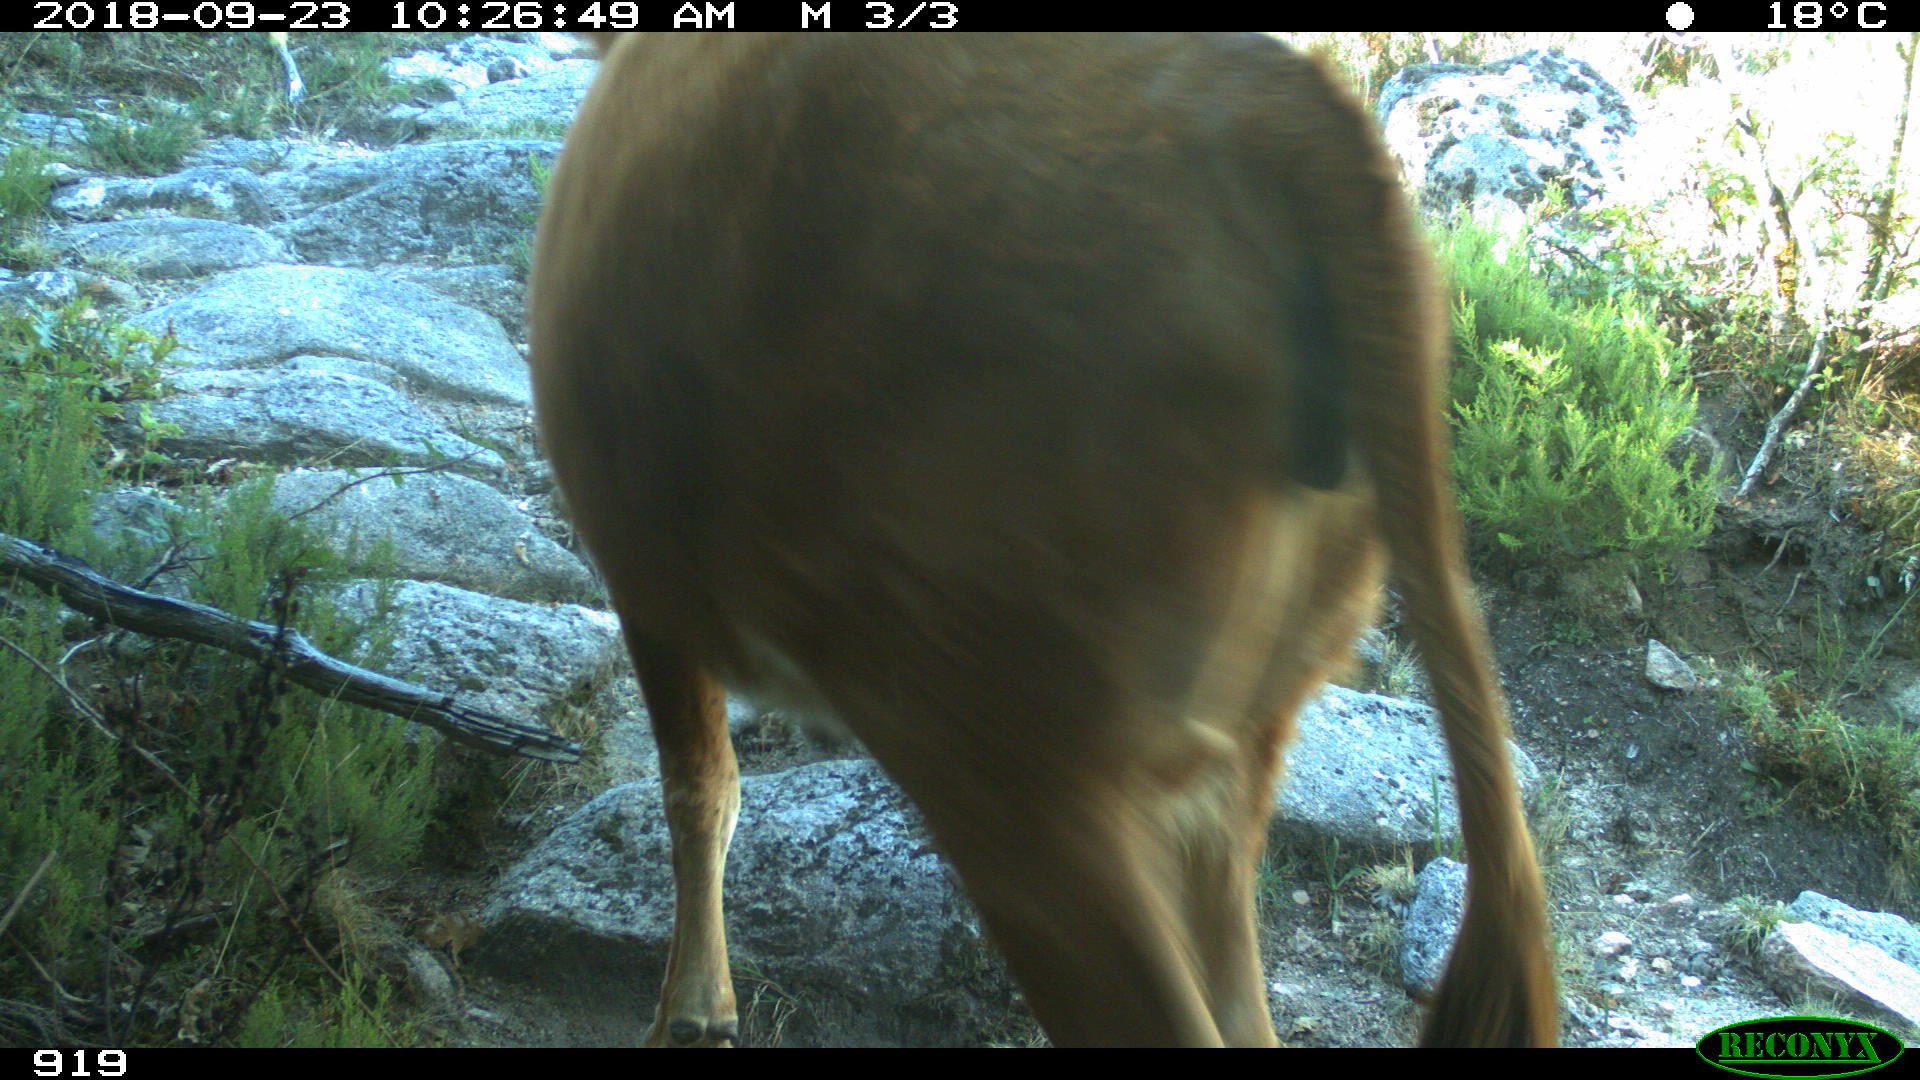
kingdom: Animalia
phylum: Chordata
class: Mammalia
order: Artiodactyla
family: Bovidae
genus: Bos
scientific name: Bos taurus
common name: Domesticated cattle
